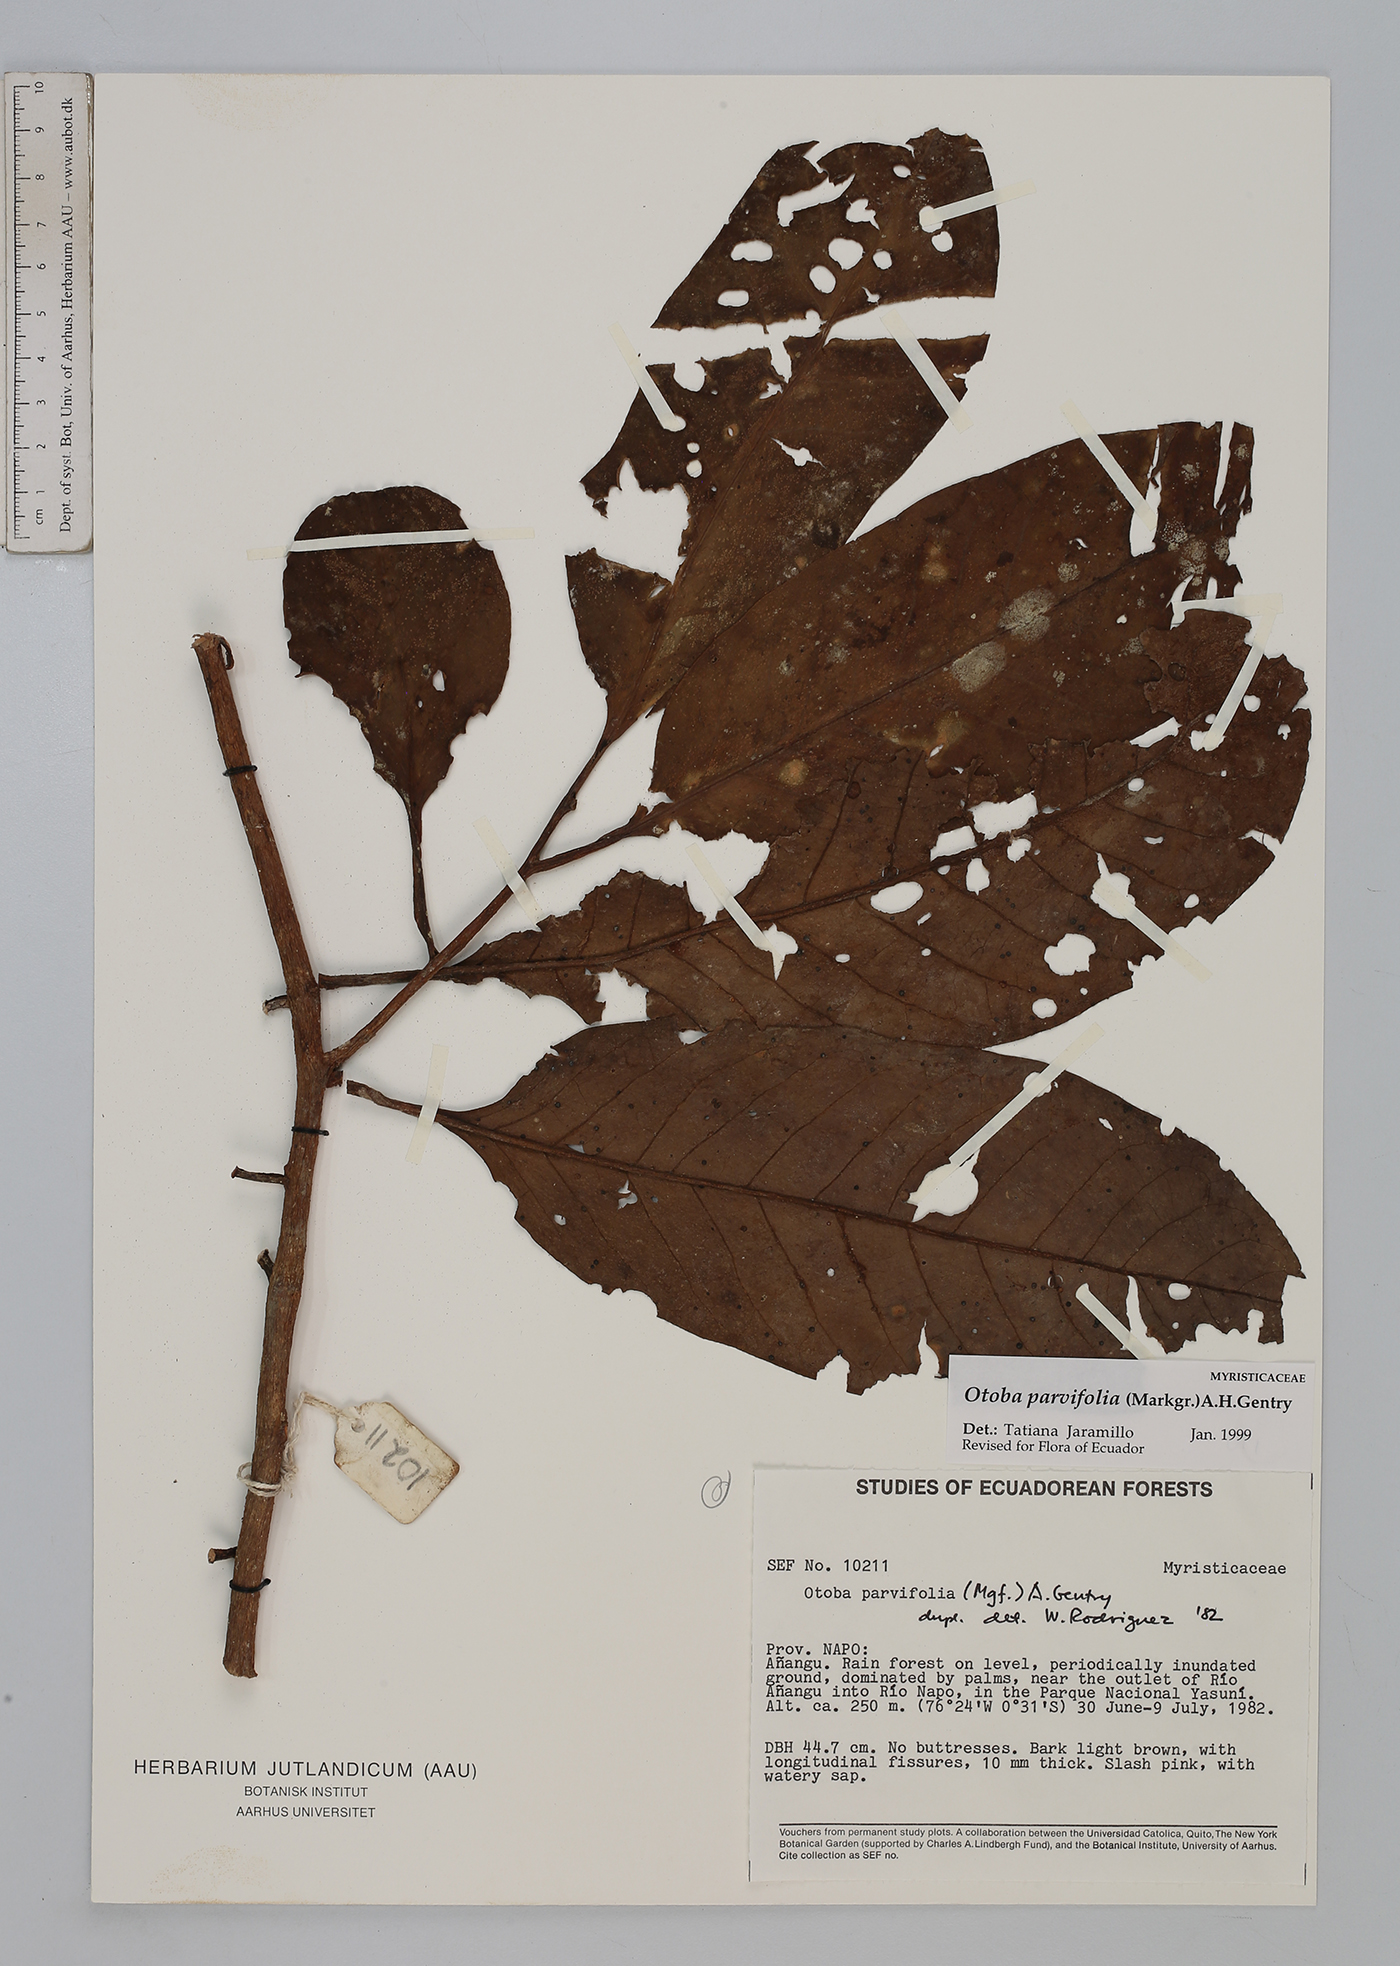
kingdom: Plantae
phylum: Tracheophyta
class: Magnoliopsida
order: Magnoliales
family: Myristicaceae
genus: Otoba
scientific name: Otoba parvifolia
